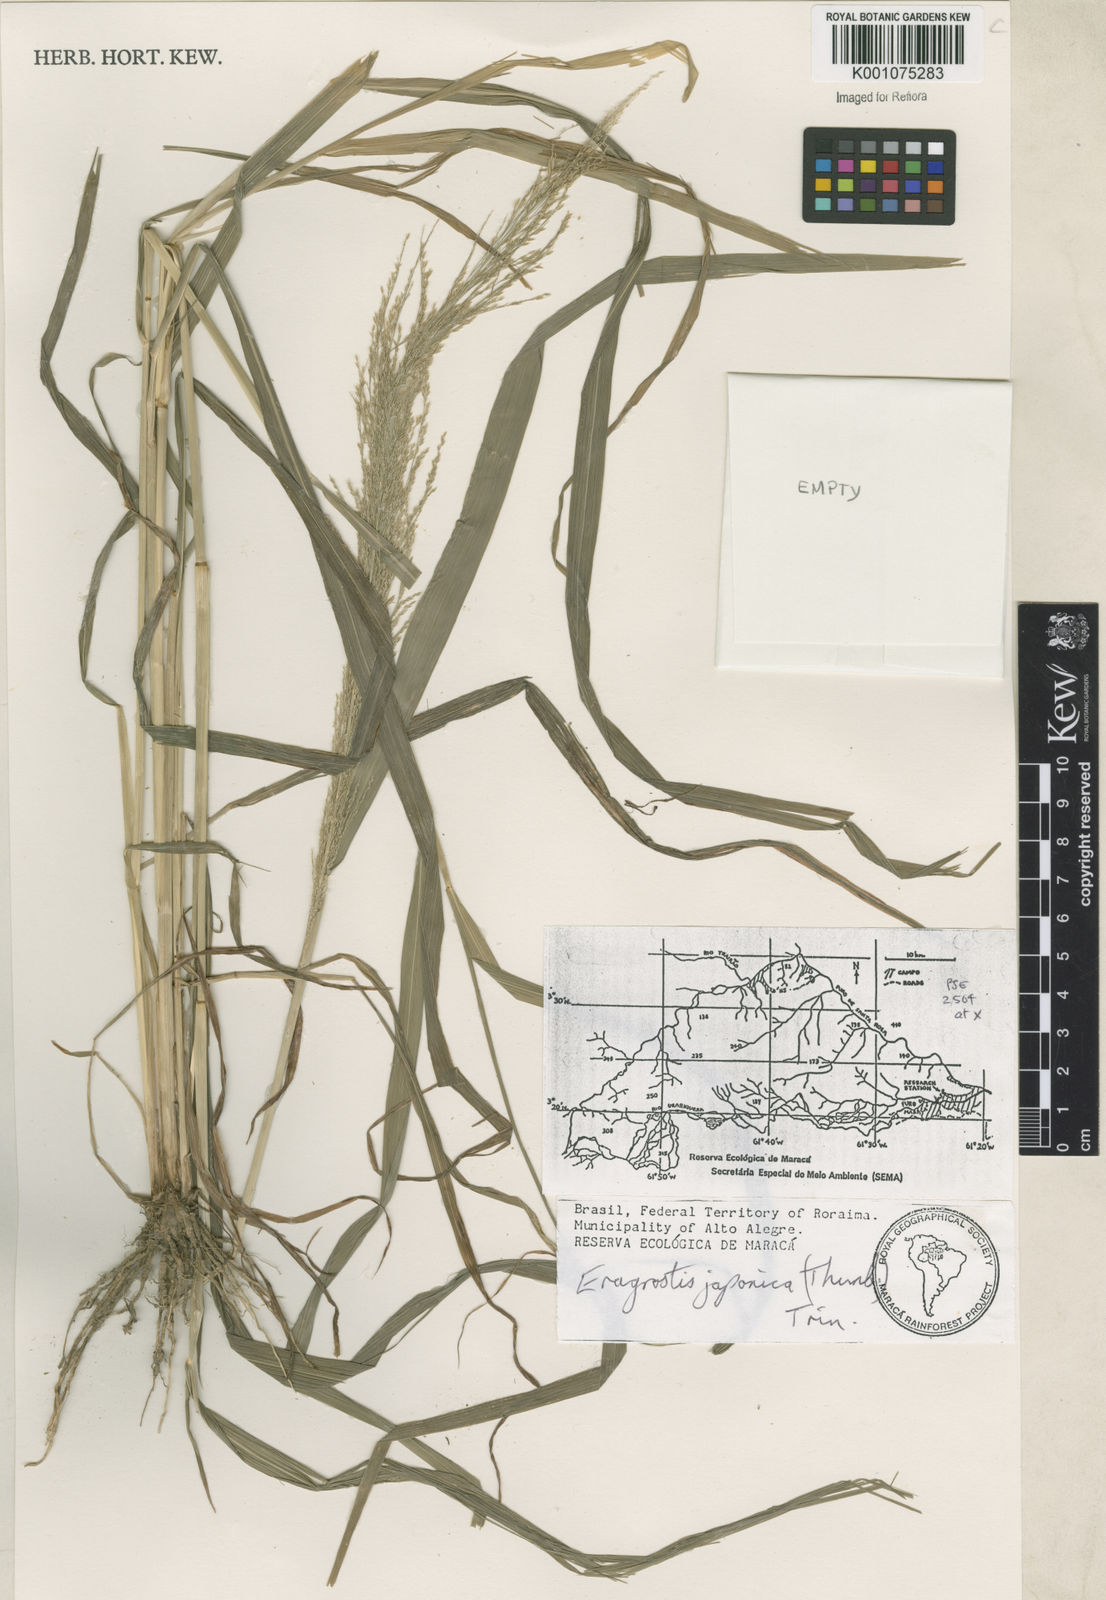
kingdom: Plantae
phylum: Tracheophyta
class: Liliopsida
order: Poales
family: Poaceae
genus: Eragrostis
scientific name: Eragrostis japonica
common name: Pond lovegrass
